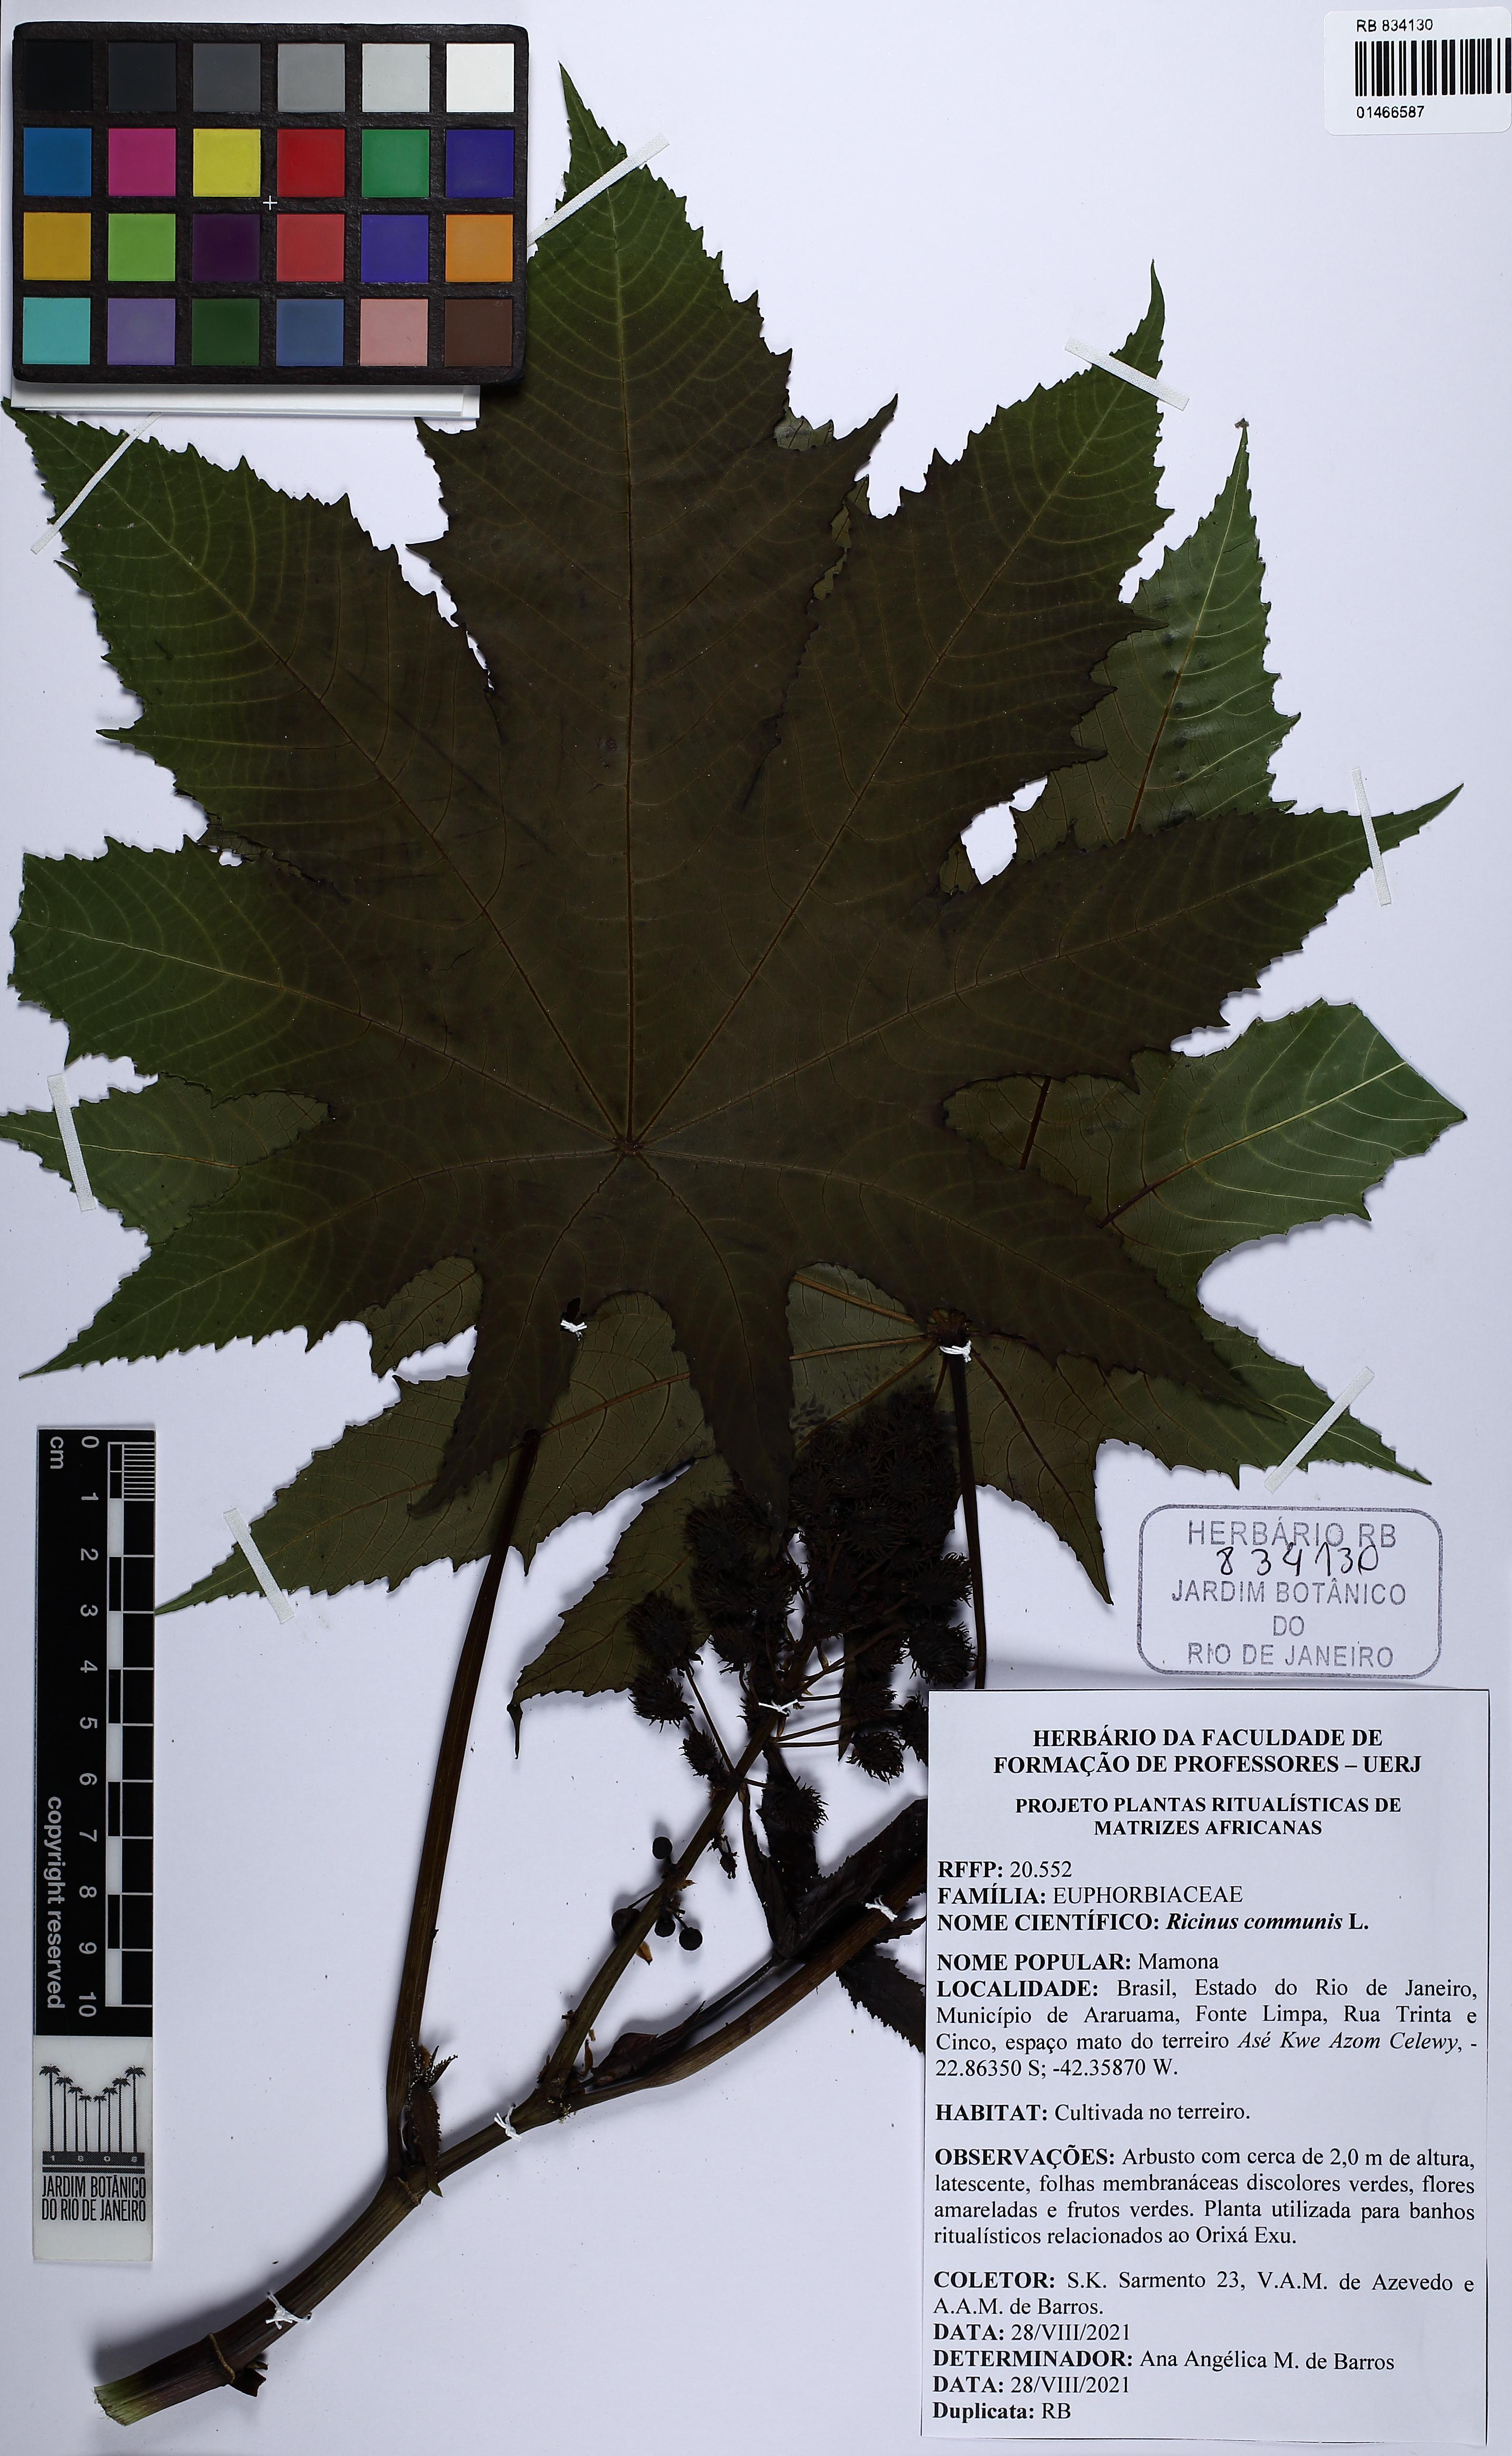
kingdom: Plantae
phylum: Tracheophyta
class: Magnoliopsida
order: Malpighiales
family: Euphorbiaceae
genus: Ricinus
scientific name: Ricinus communis
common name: Castor-oil-plant
